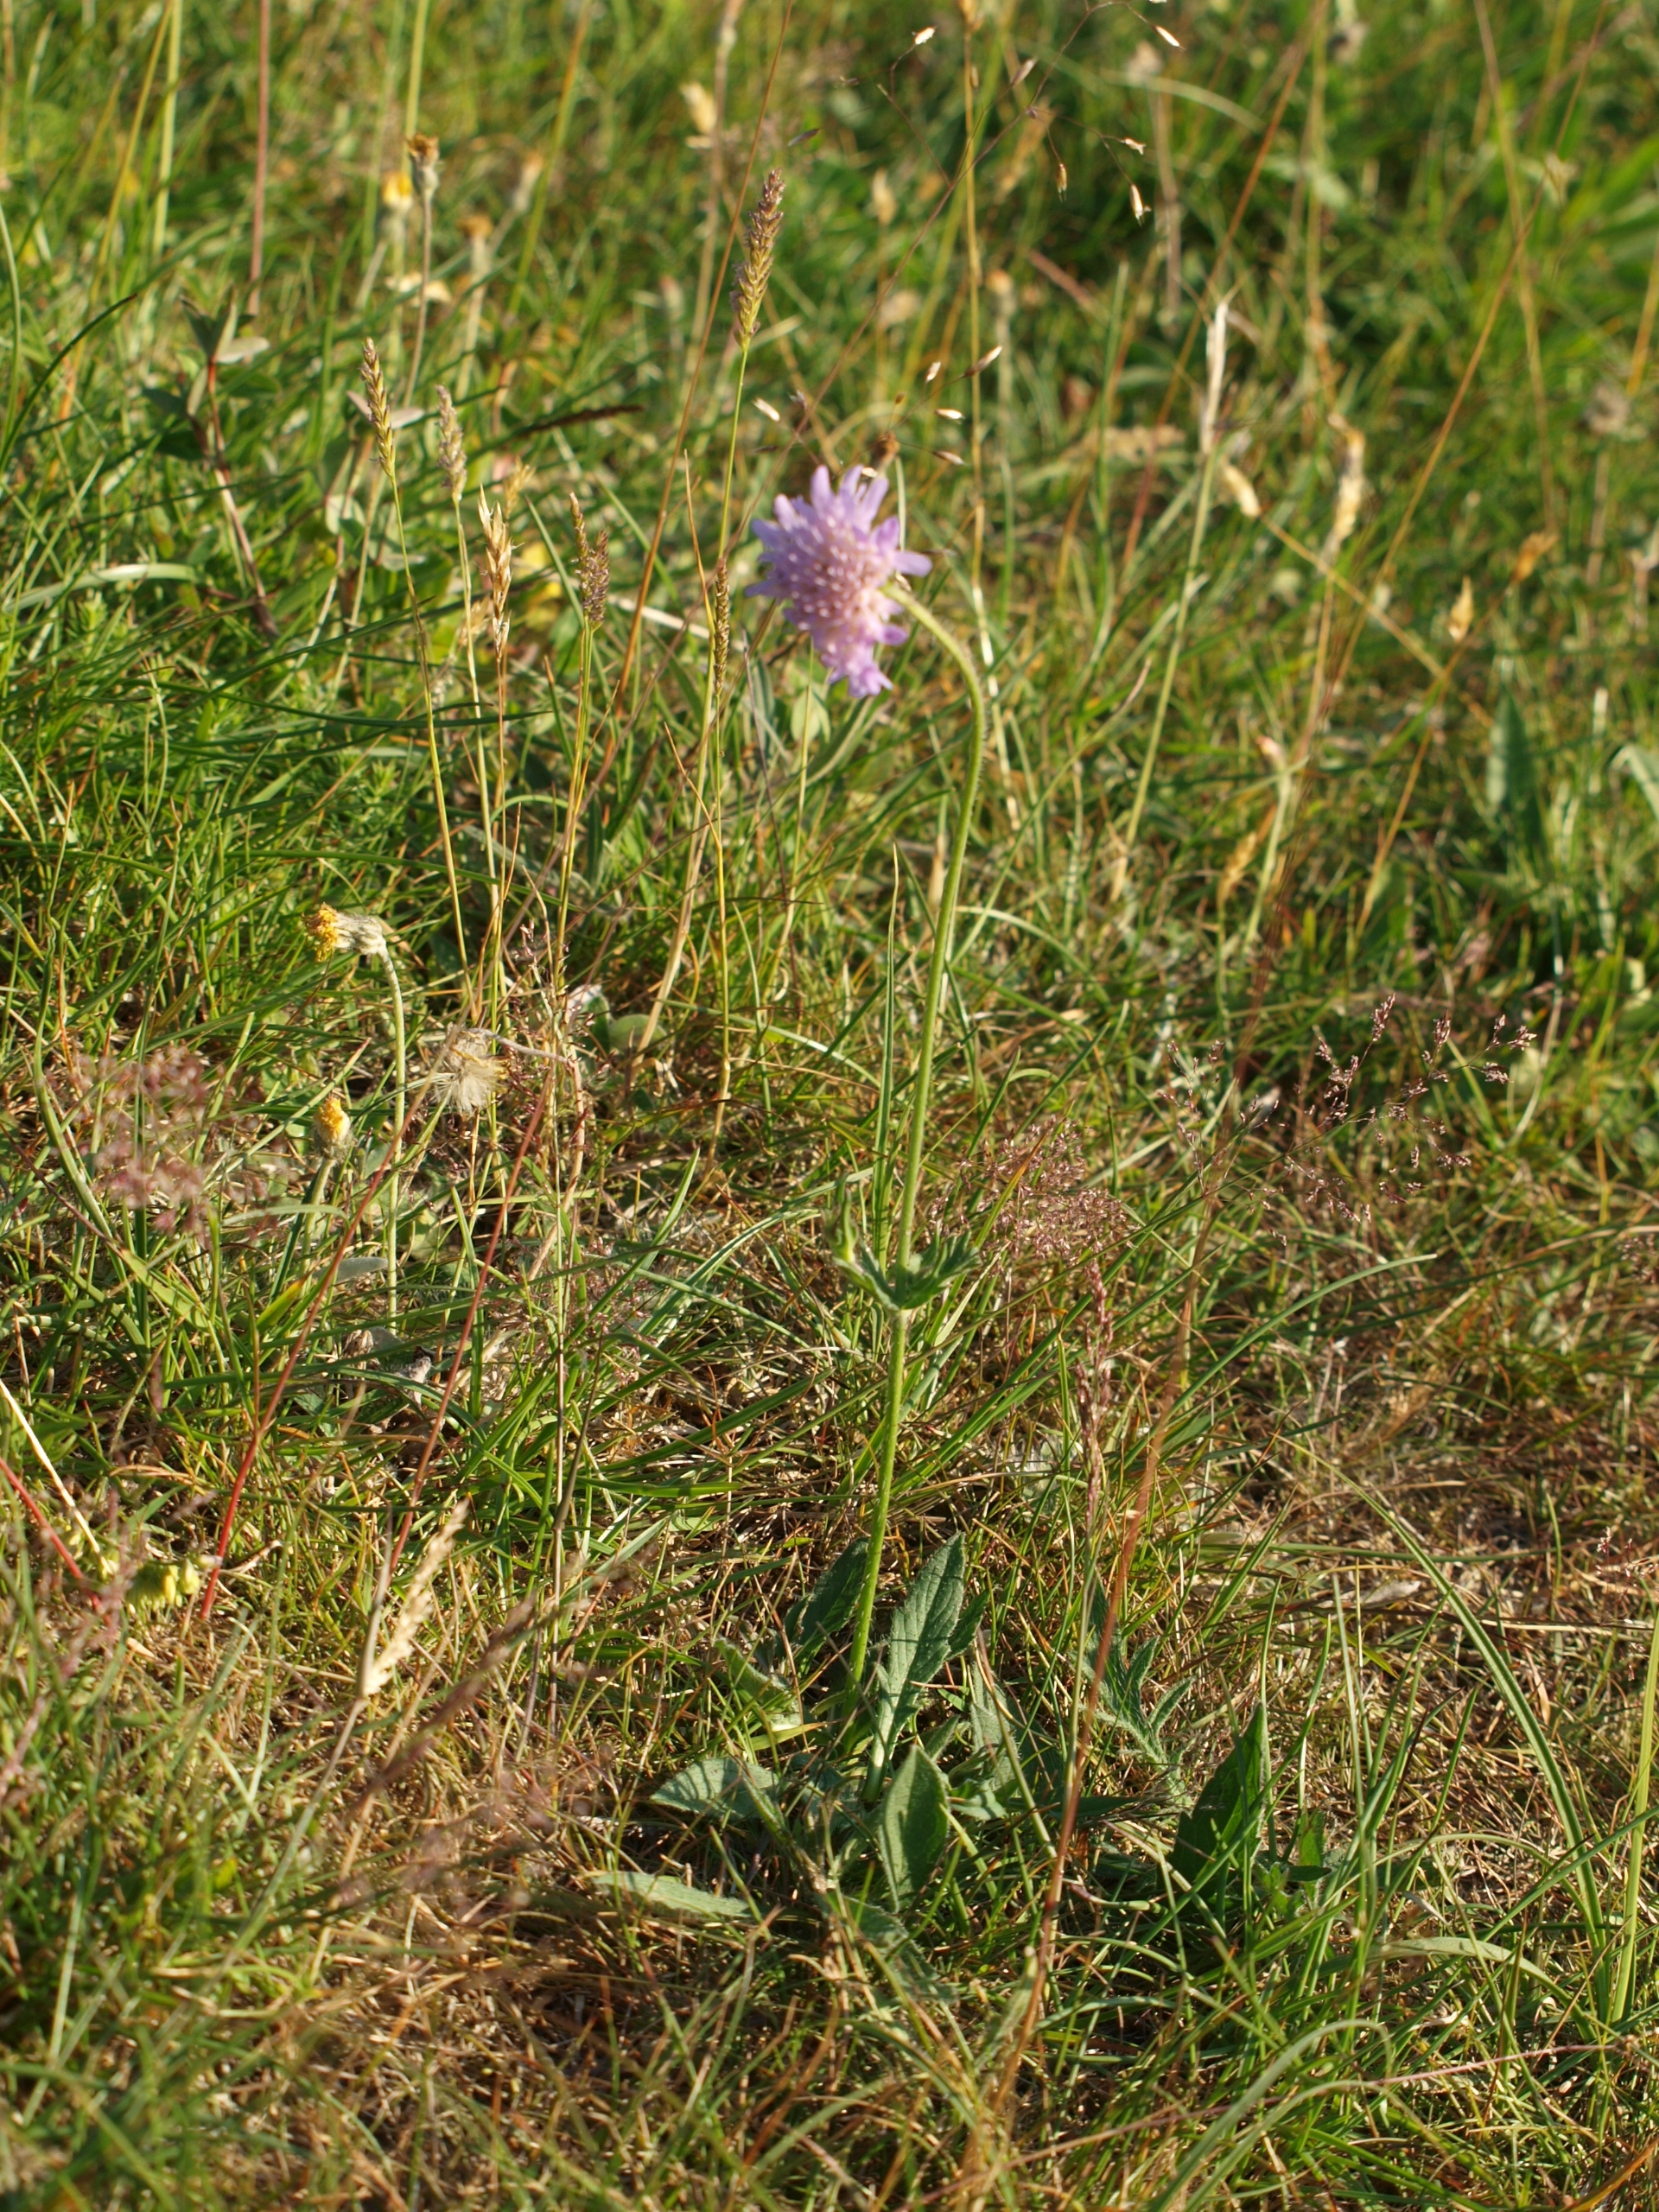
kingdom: Plantae
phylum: Tracheophyta
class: Magnoliopsida
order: Dipsacales
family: Caprifoliaceae
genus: Knautia
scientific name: Knautia arvensis
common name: Blåhat
